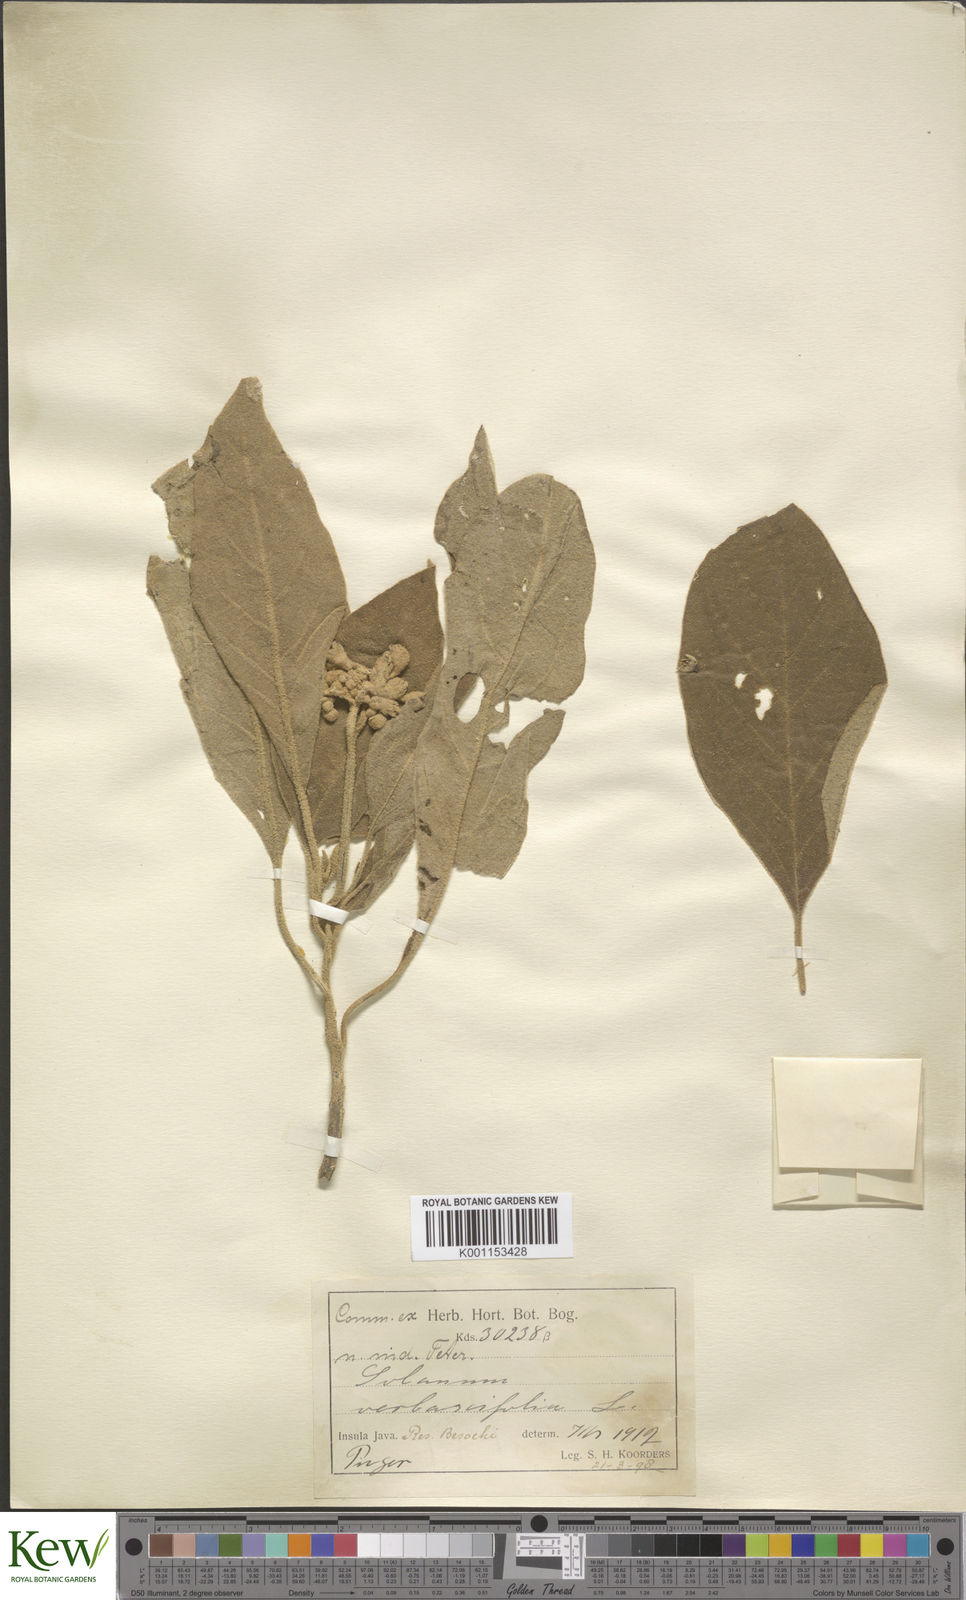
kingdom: Plantae
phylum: Tracheophyta
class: Magnoliopsida
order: Solanales
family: Solanaceae
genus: Solanum
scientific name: Solanum donianum
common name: Mullein nightshade
